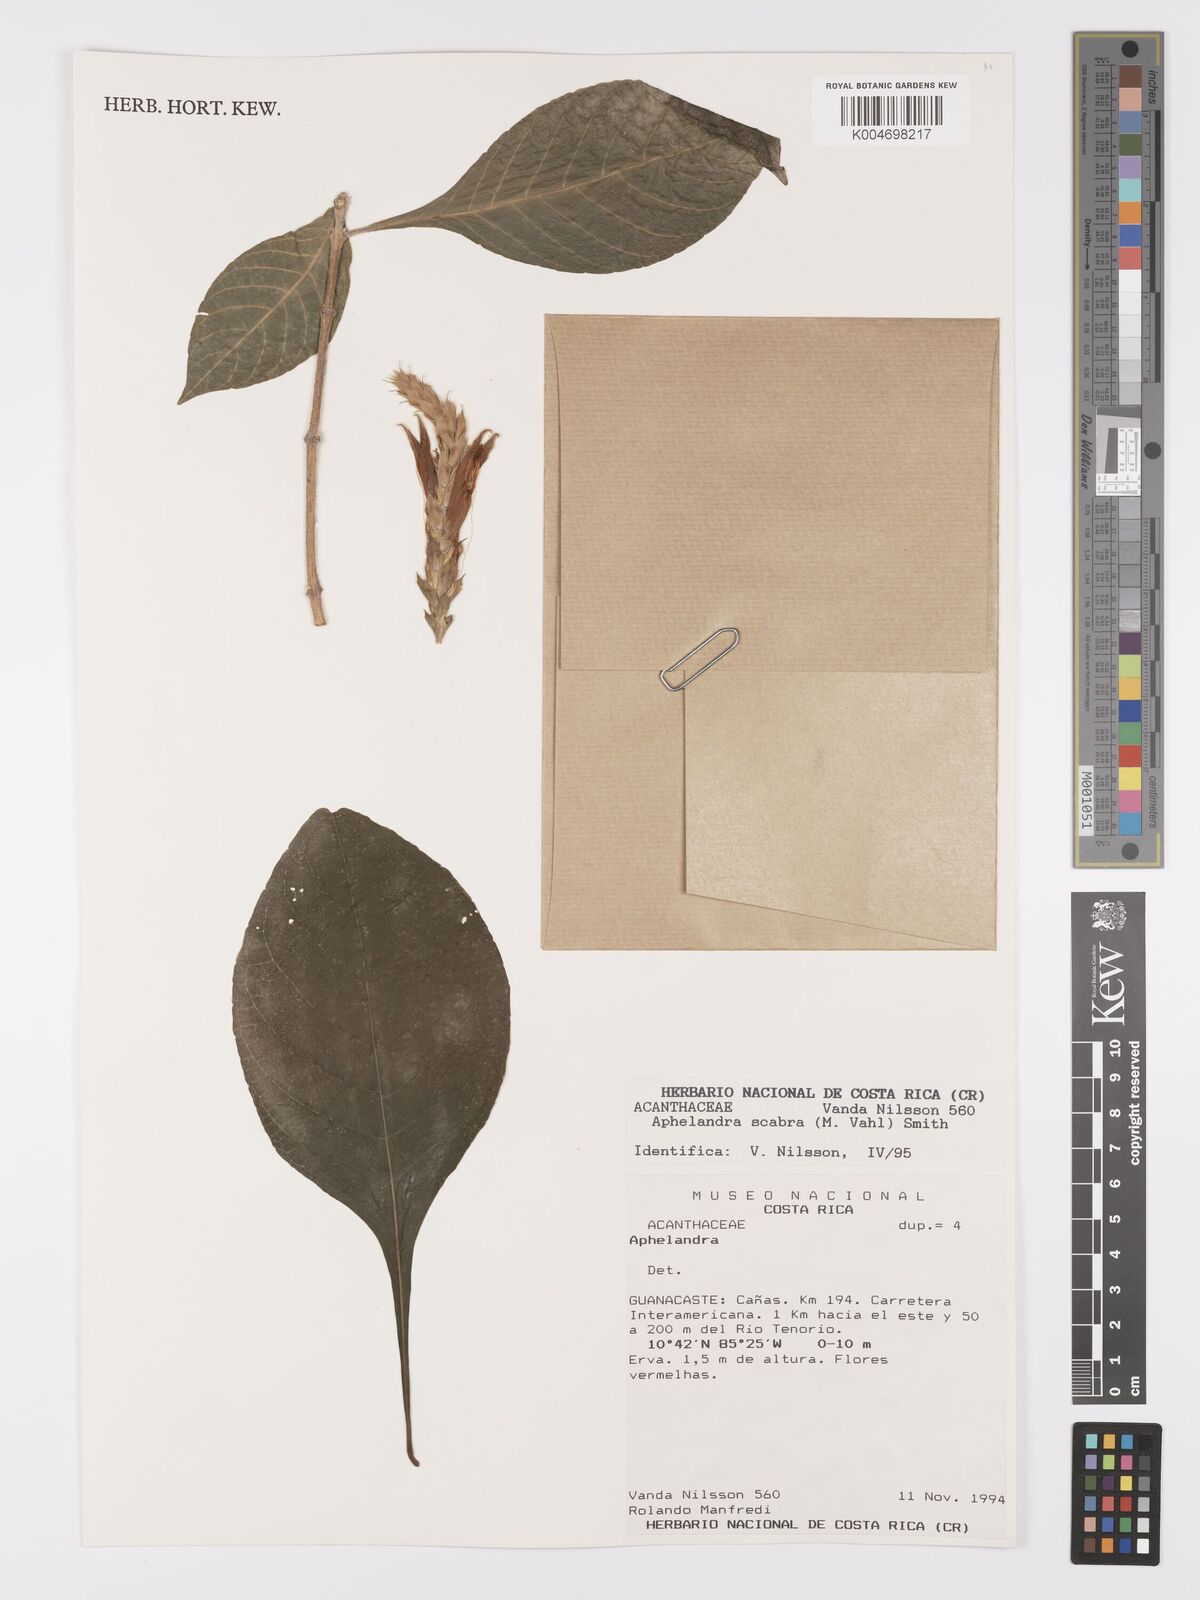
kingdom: Plantae
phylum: Tracheophyta
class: Magnoliopsida
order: Lamiales
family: Acanthaceae
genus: Aphelandra
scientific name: Aphelandra scabra
